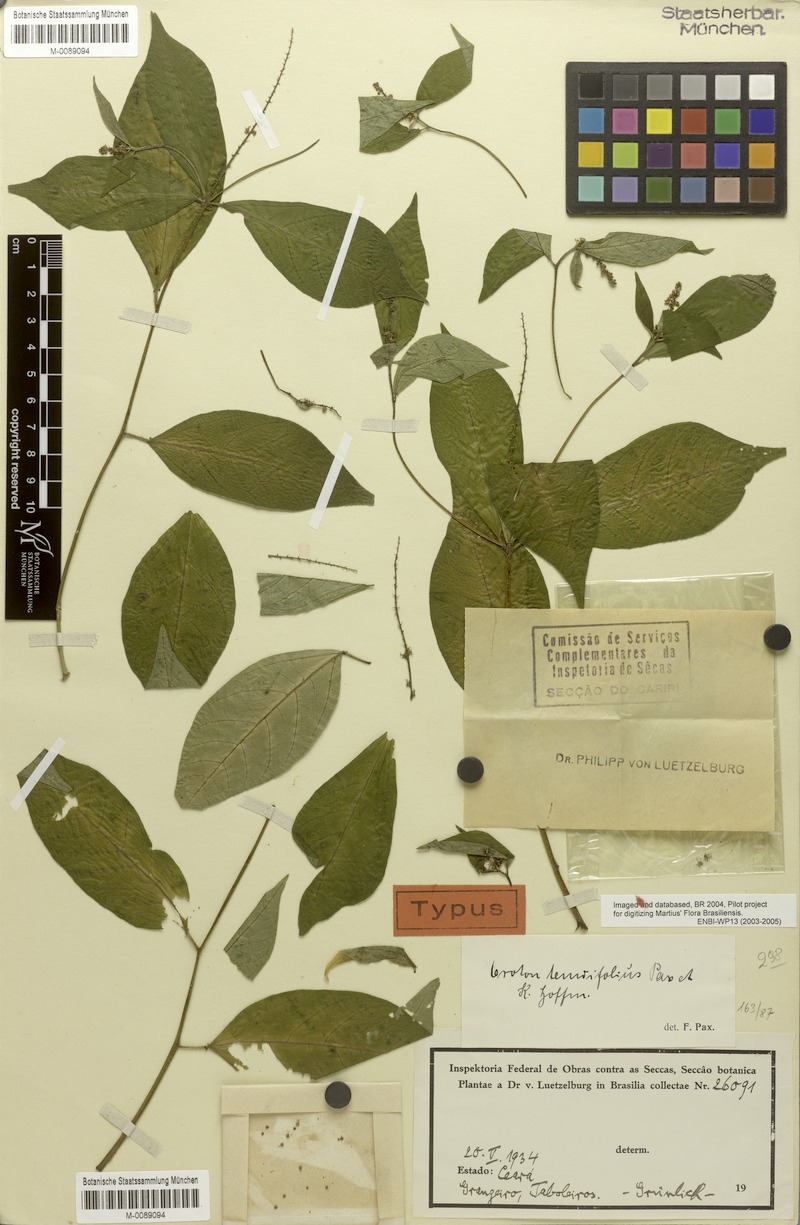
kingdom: Plantae
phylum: Tracheophyta
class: Magnoliopsida
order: Malpighiales
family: Euphorbiaceae
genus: Croton
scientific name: Croton tenuifolius
